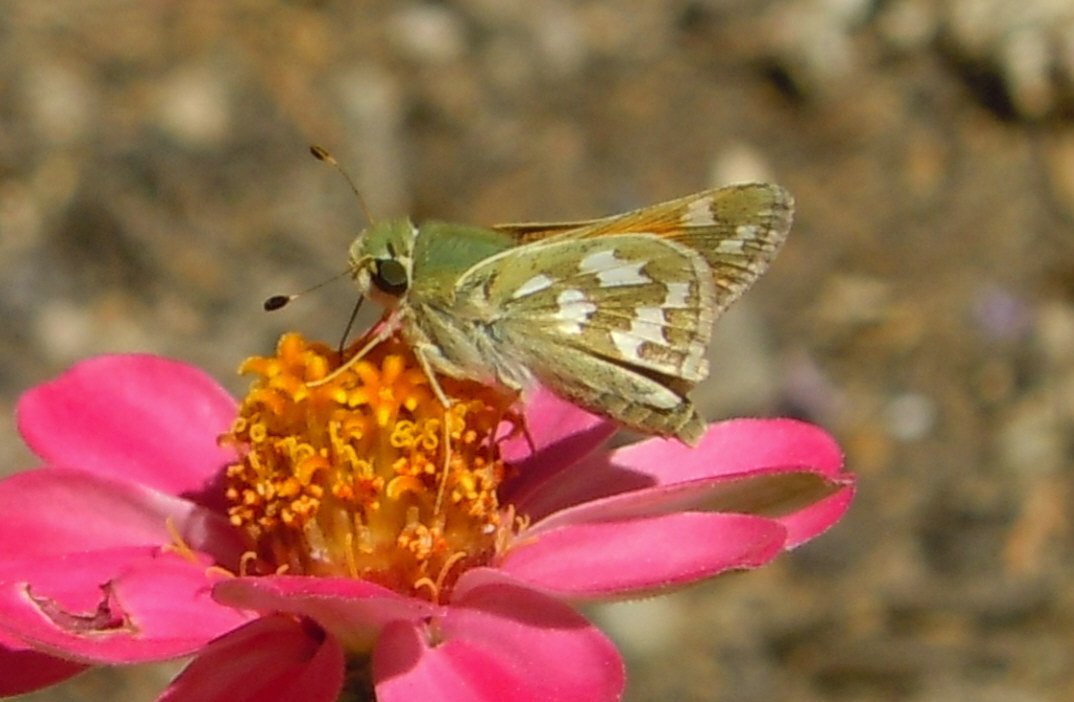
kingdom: Animalia
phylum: Arthropoda
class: Insecta
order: Lepidoptera
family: Hesperiidae
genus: Hesperia
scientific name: Hesperia comma
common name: Western Branded Skipper
